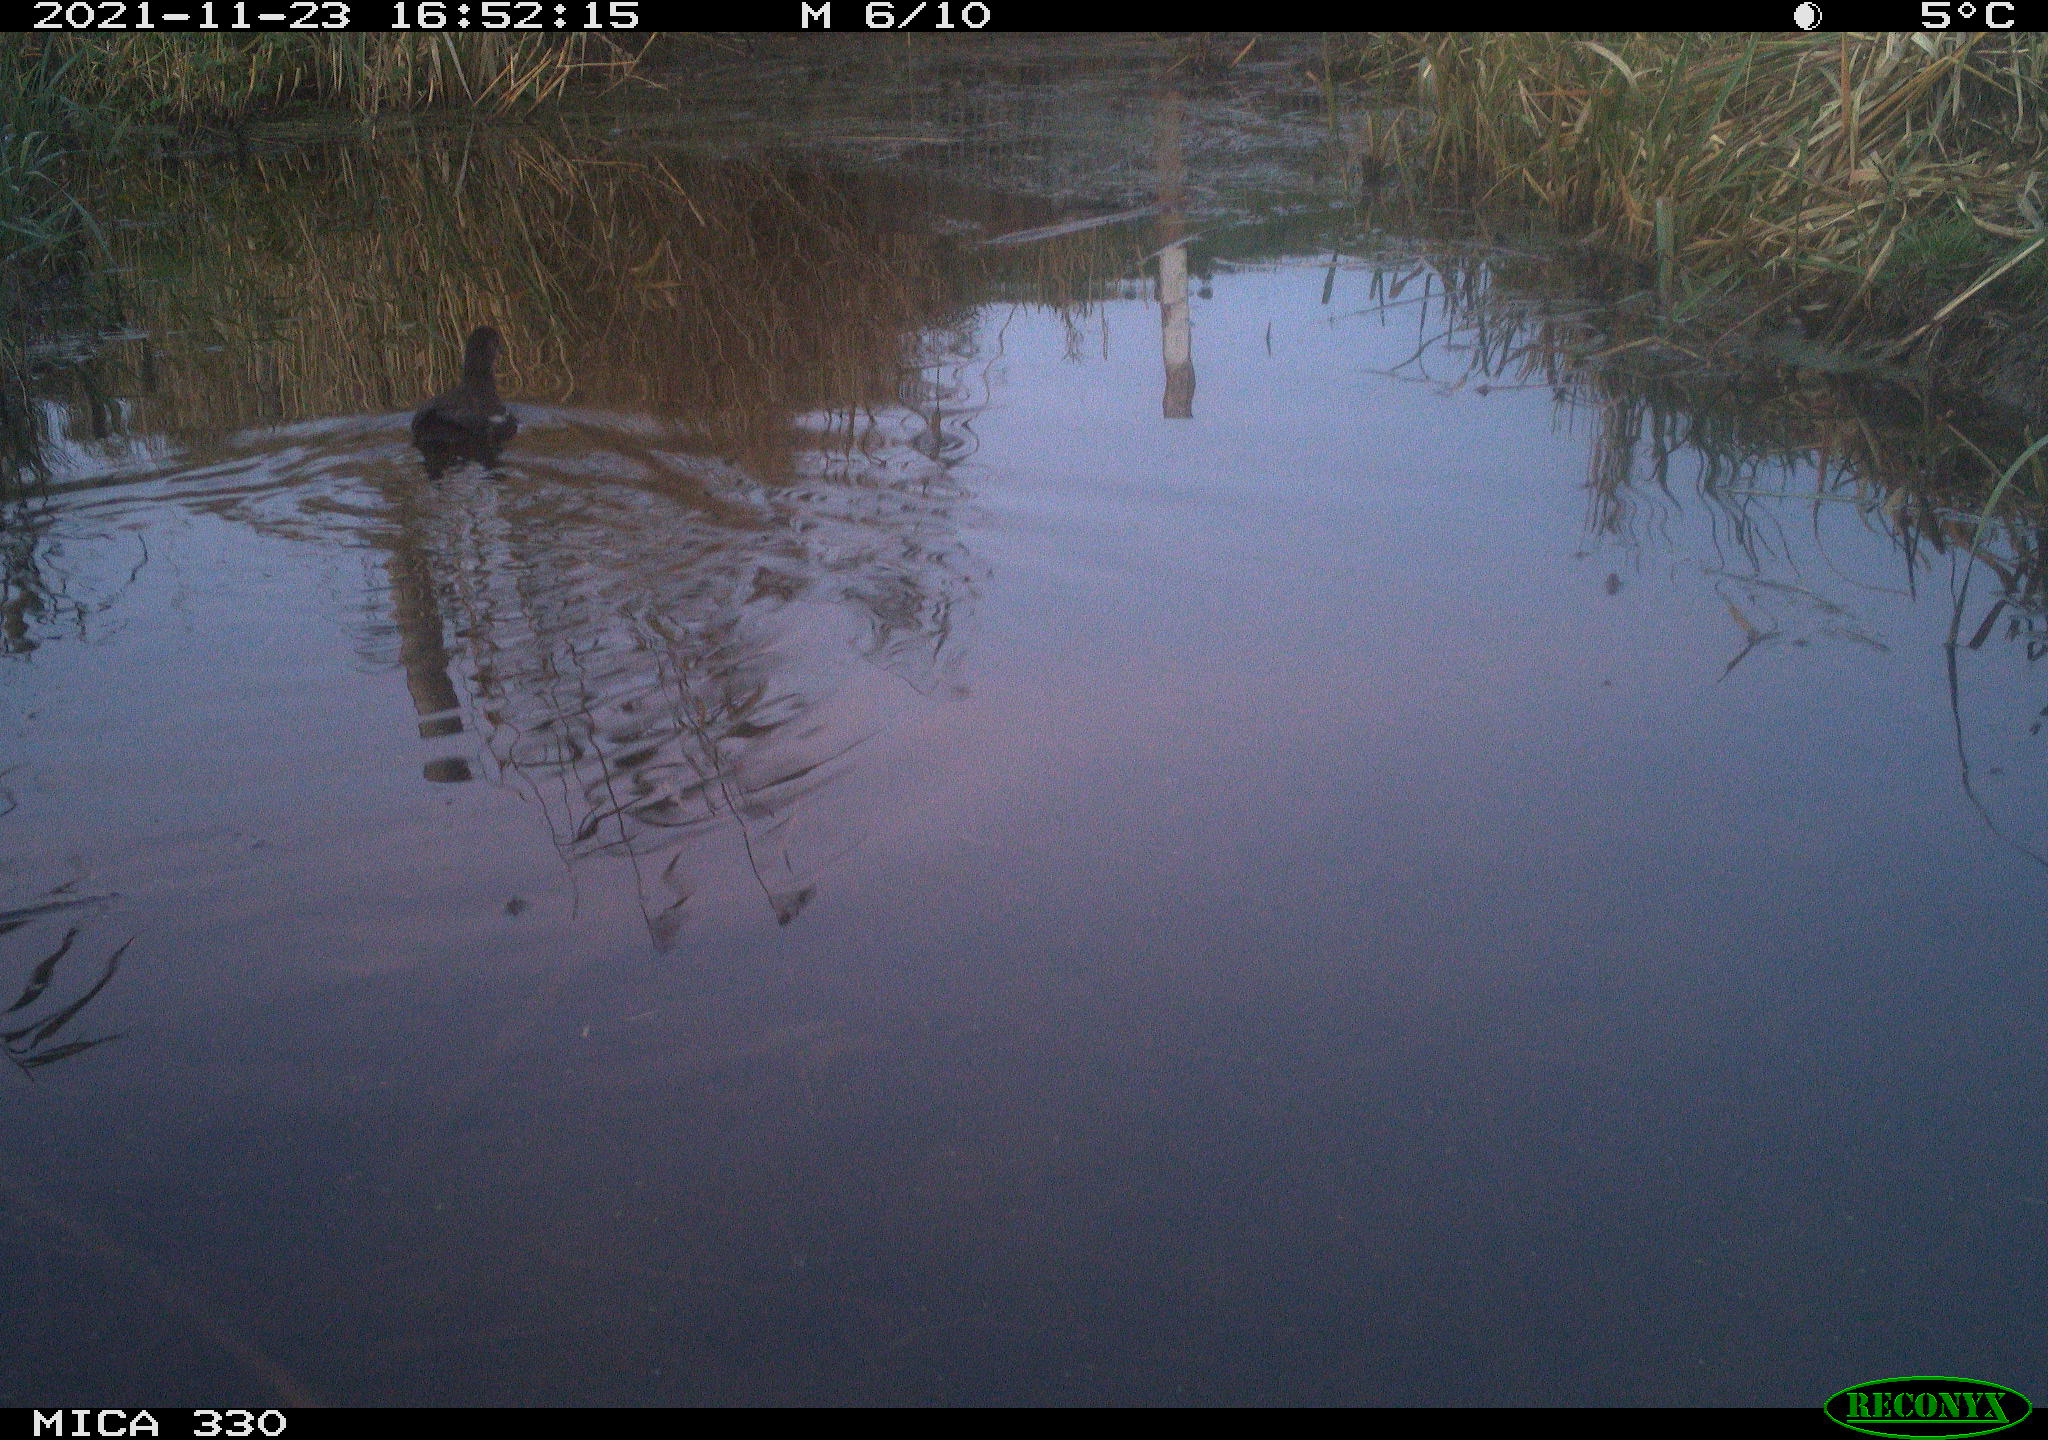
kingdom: Animalia
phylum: Chordata
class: Aves
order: Gruiformes
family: Rallidae
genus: Gallinula
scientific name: Gallinula chloropus
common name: Common moorhen
